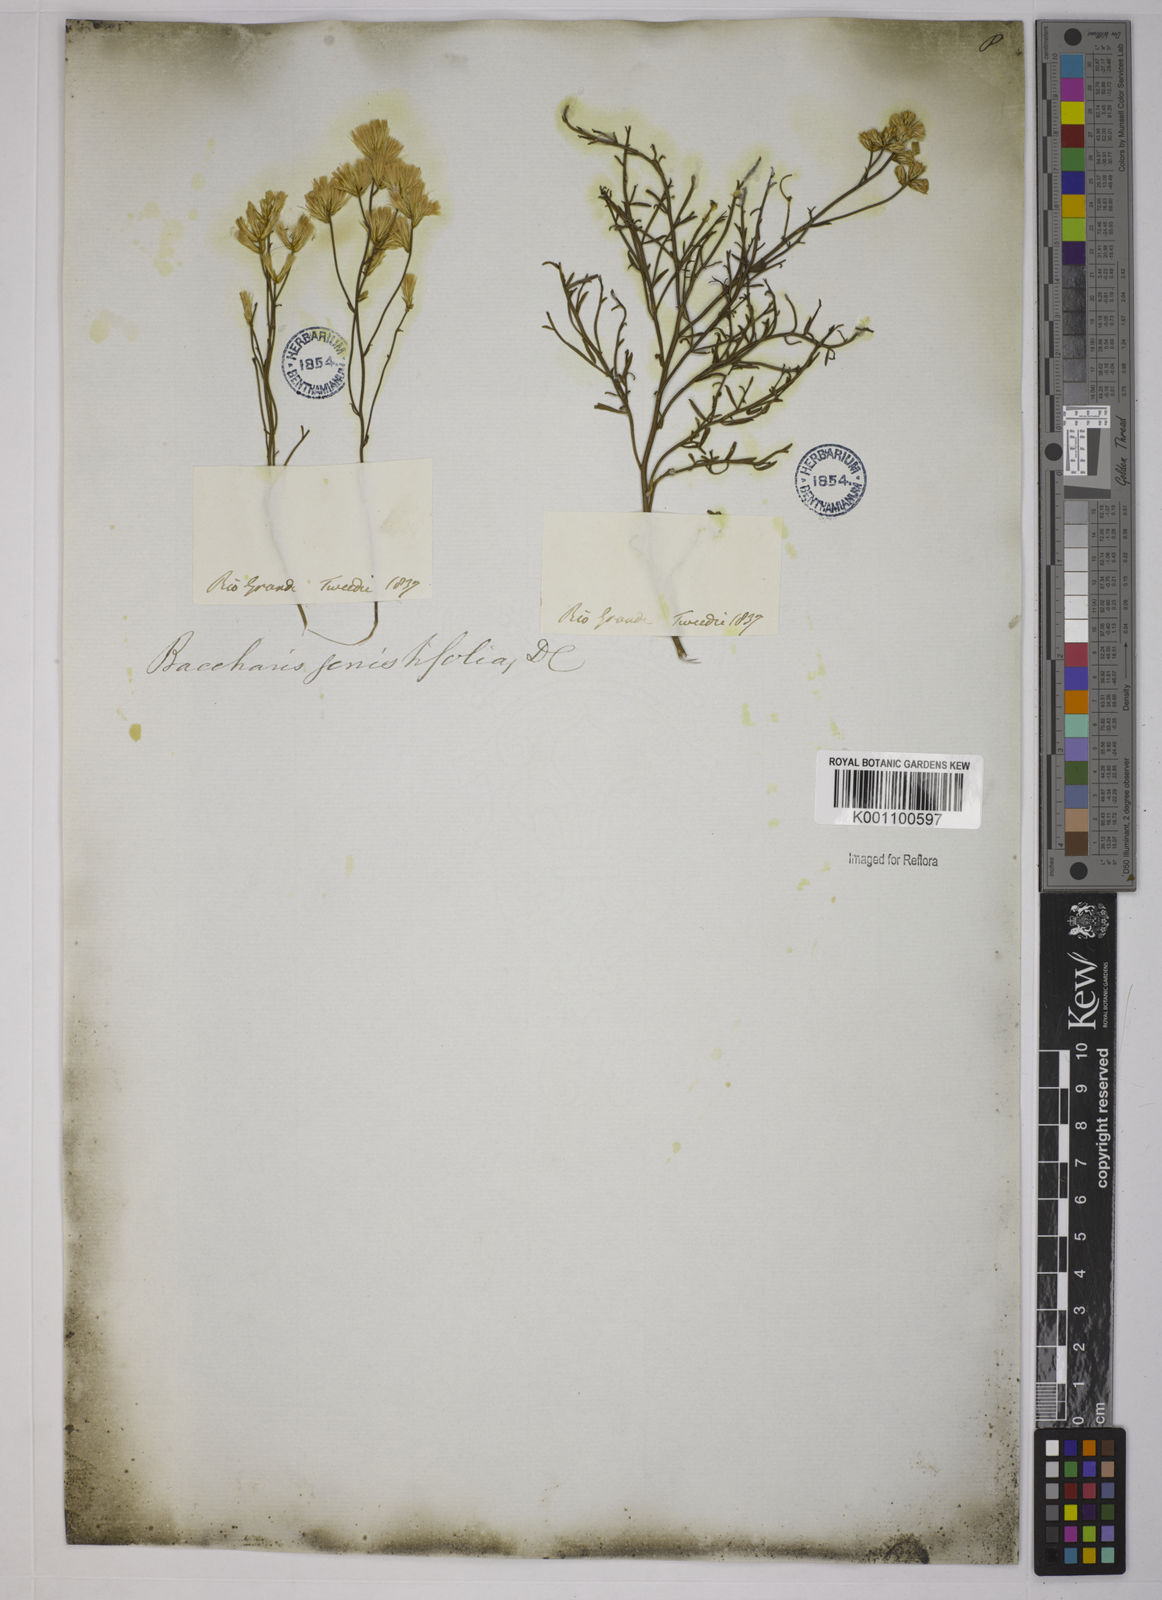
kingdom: Plantae
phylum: Tracheophyta
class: Magnoliopsida
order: Asterales
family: Asteraceae
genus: Baccharis
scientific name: Baccharis genistifolia
